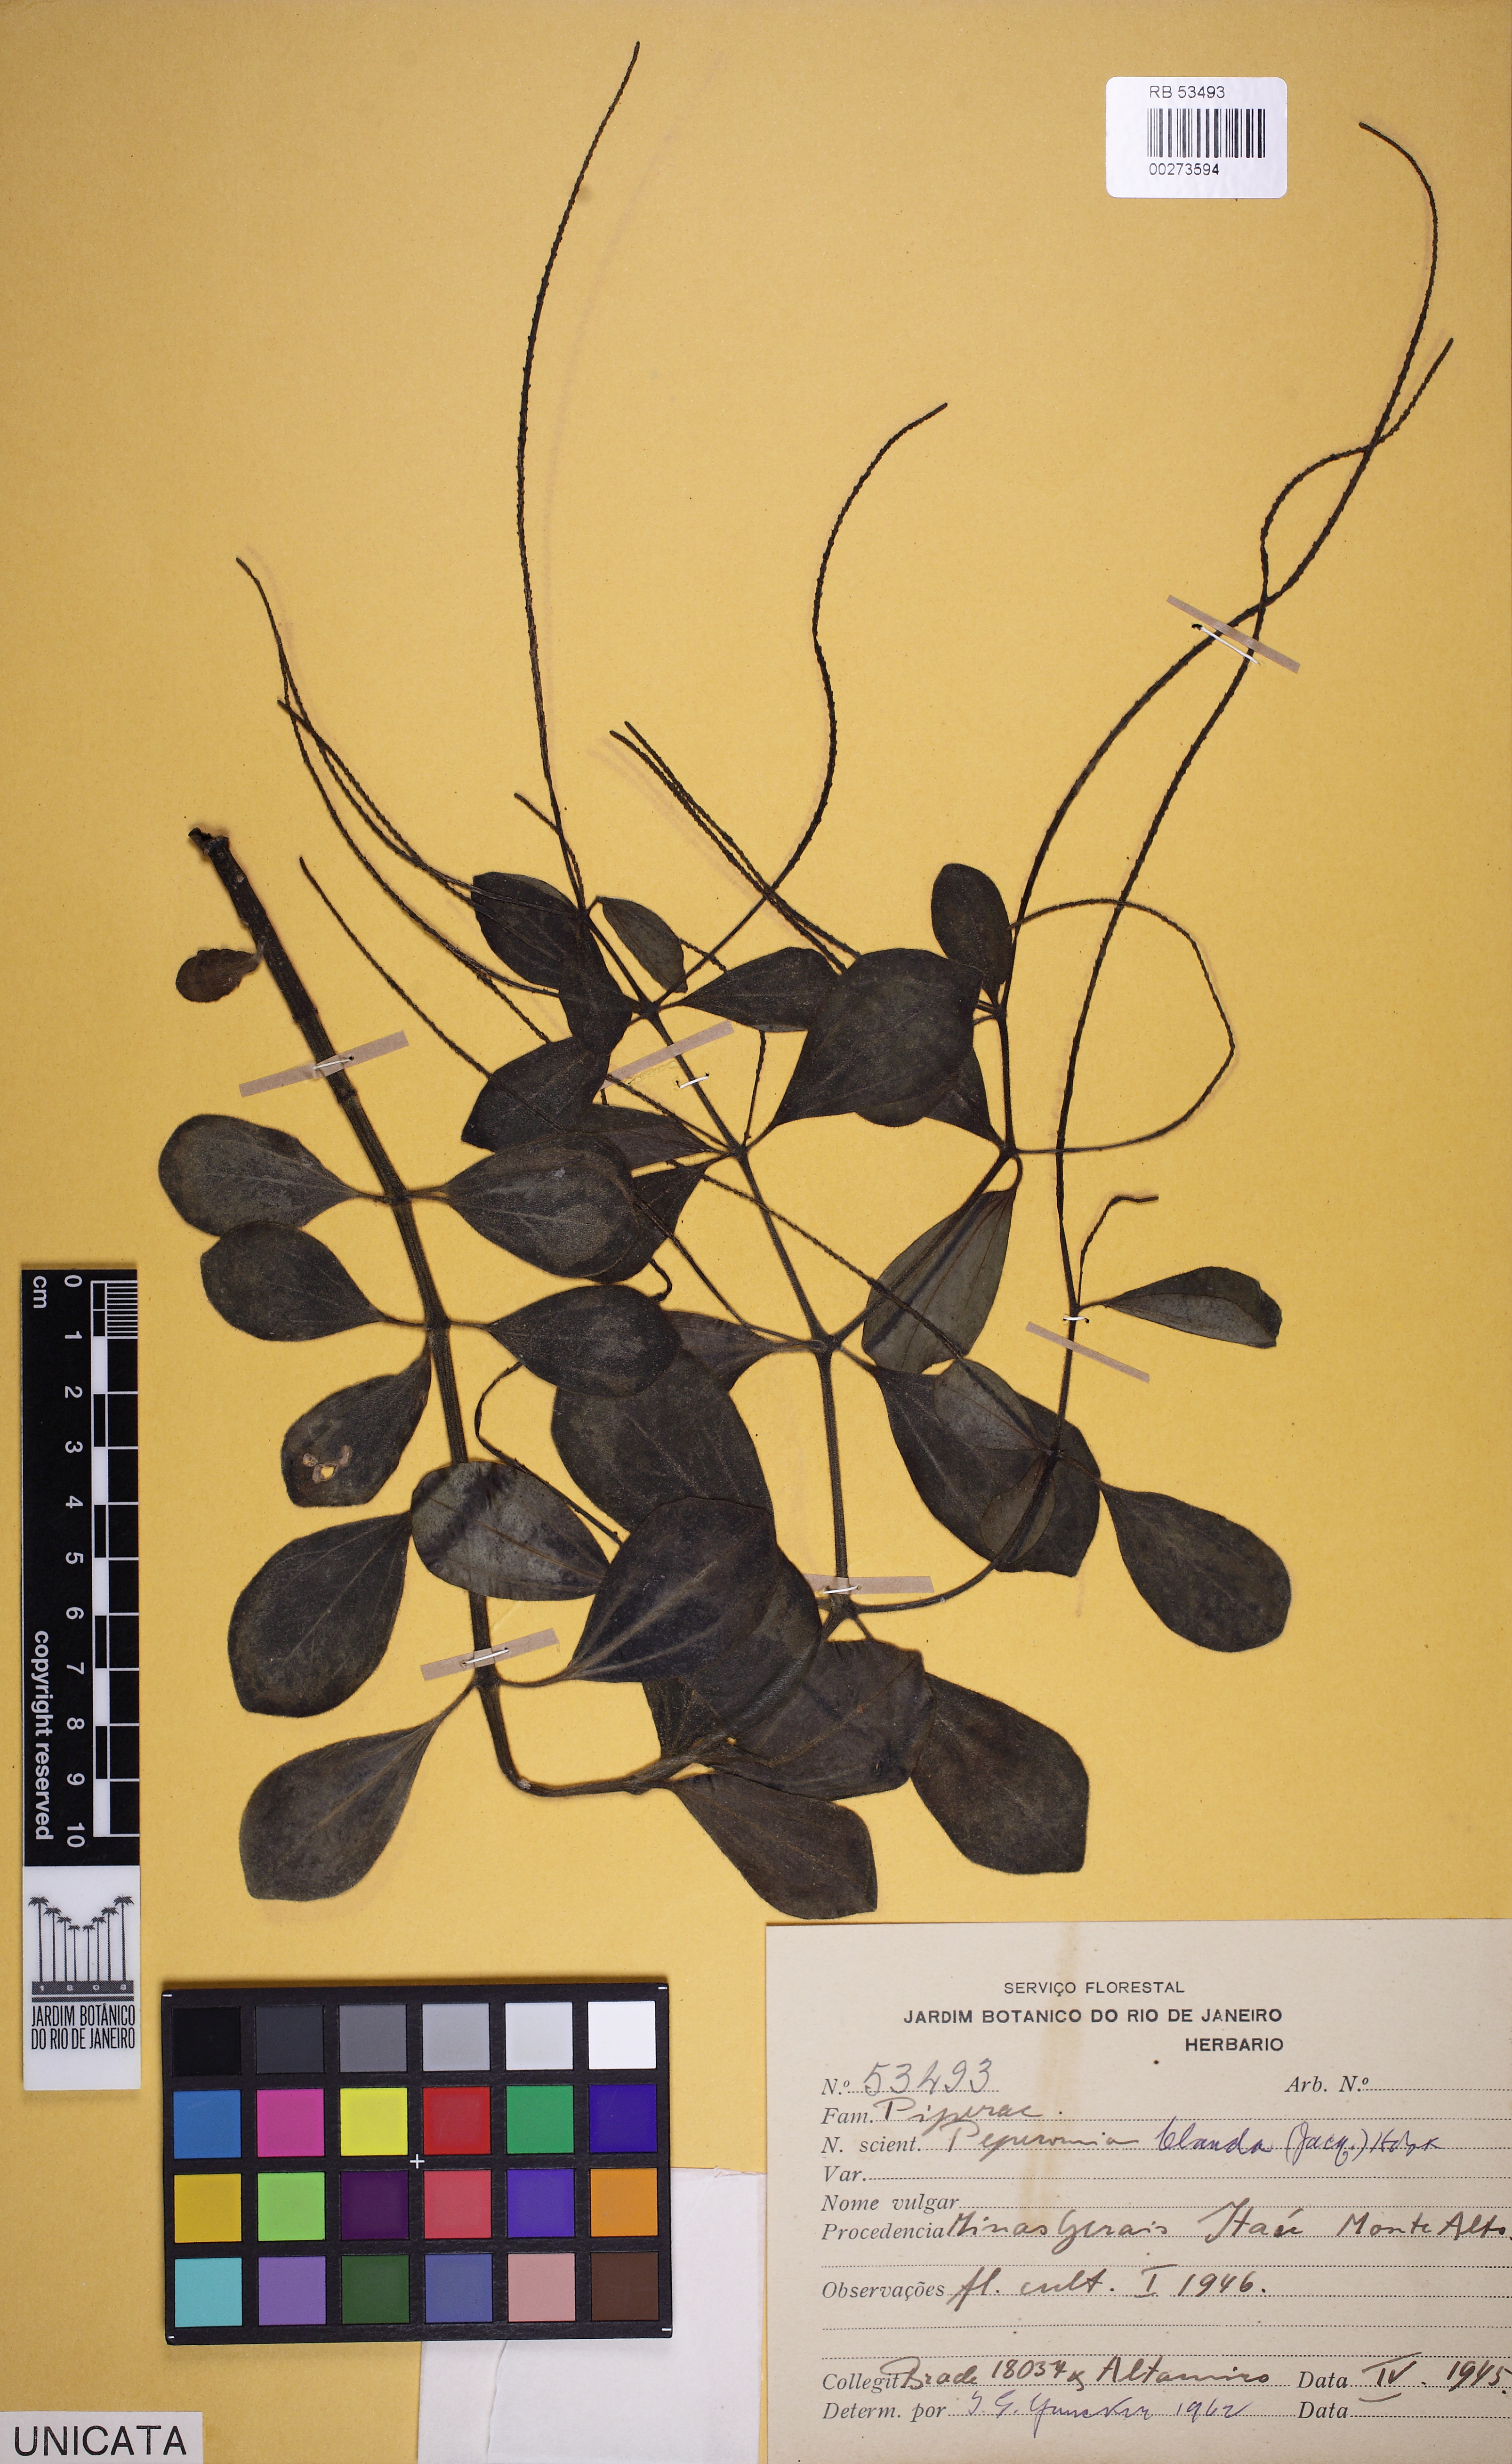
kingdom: Plantae
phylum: Tracheophyta
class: Magnoliopsida
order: Piperales
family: Piperaceae
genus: Peperomia
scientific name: Peperomia blanda
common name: Arid-land peperomia
